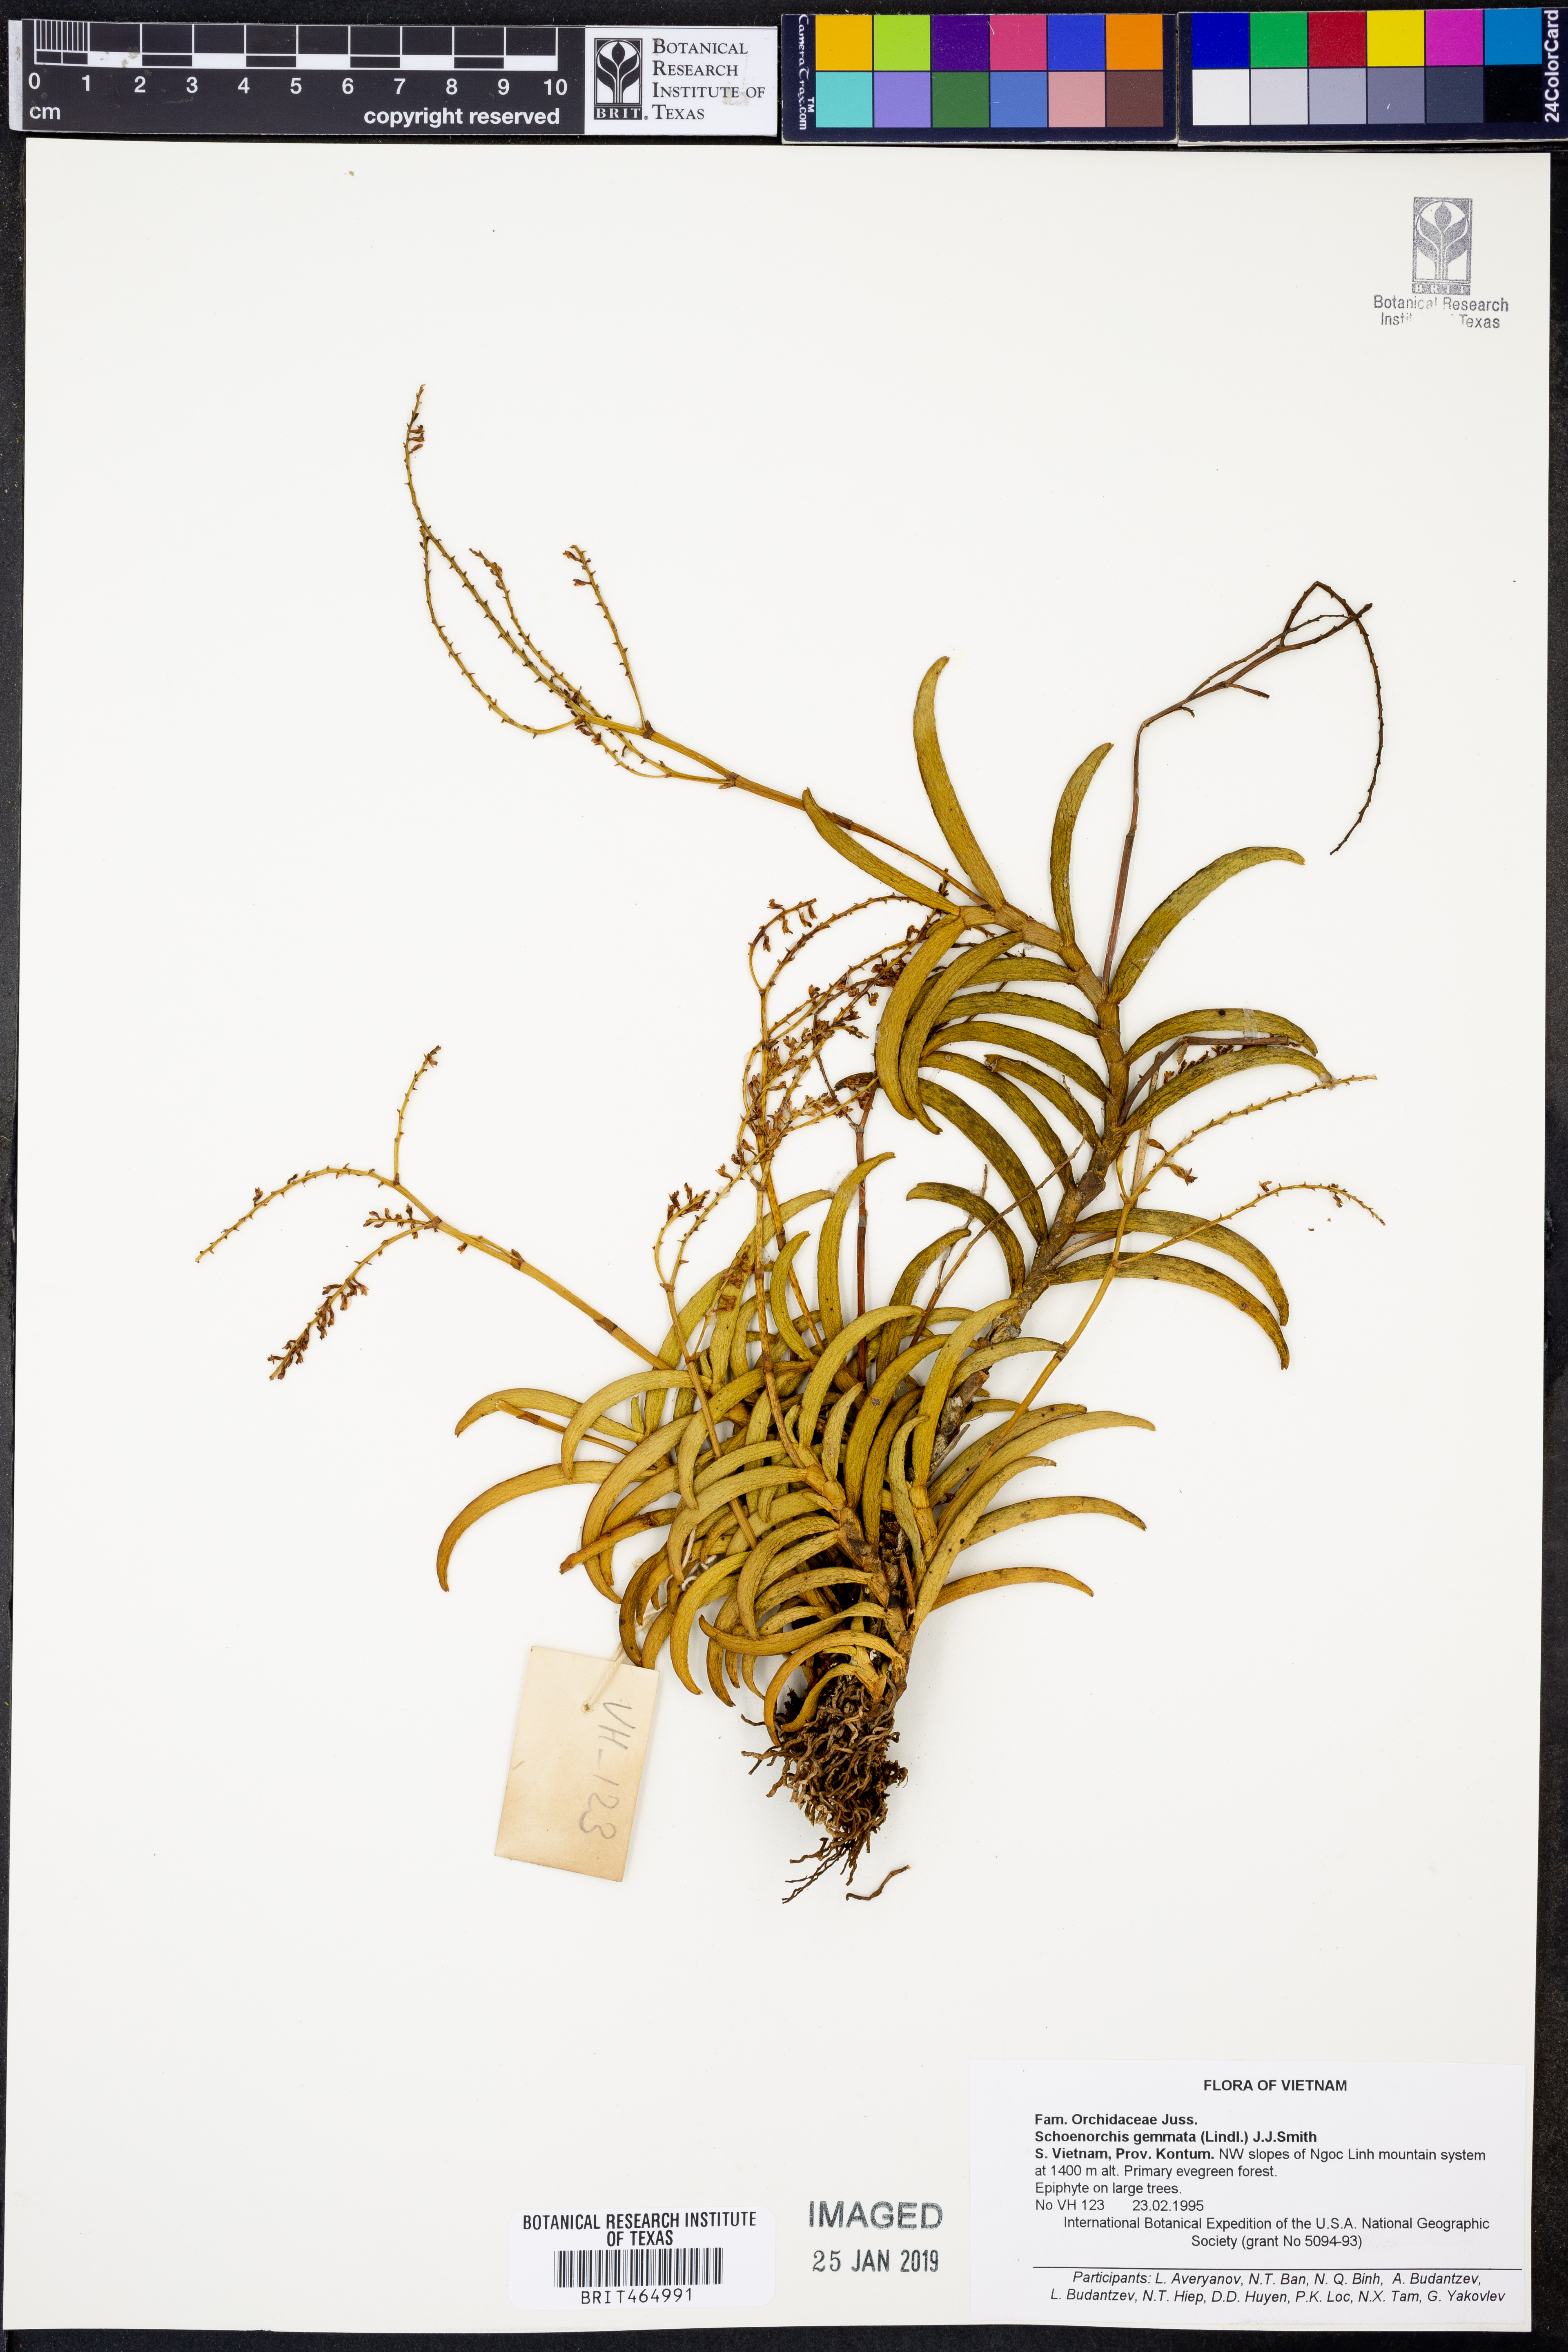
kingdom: Plantae
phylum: Tracheophyta
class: Liliopsida
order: Asparagales
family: Orchidaceae
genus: Schoenorchis
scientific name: Schoenorchis gemmata
